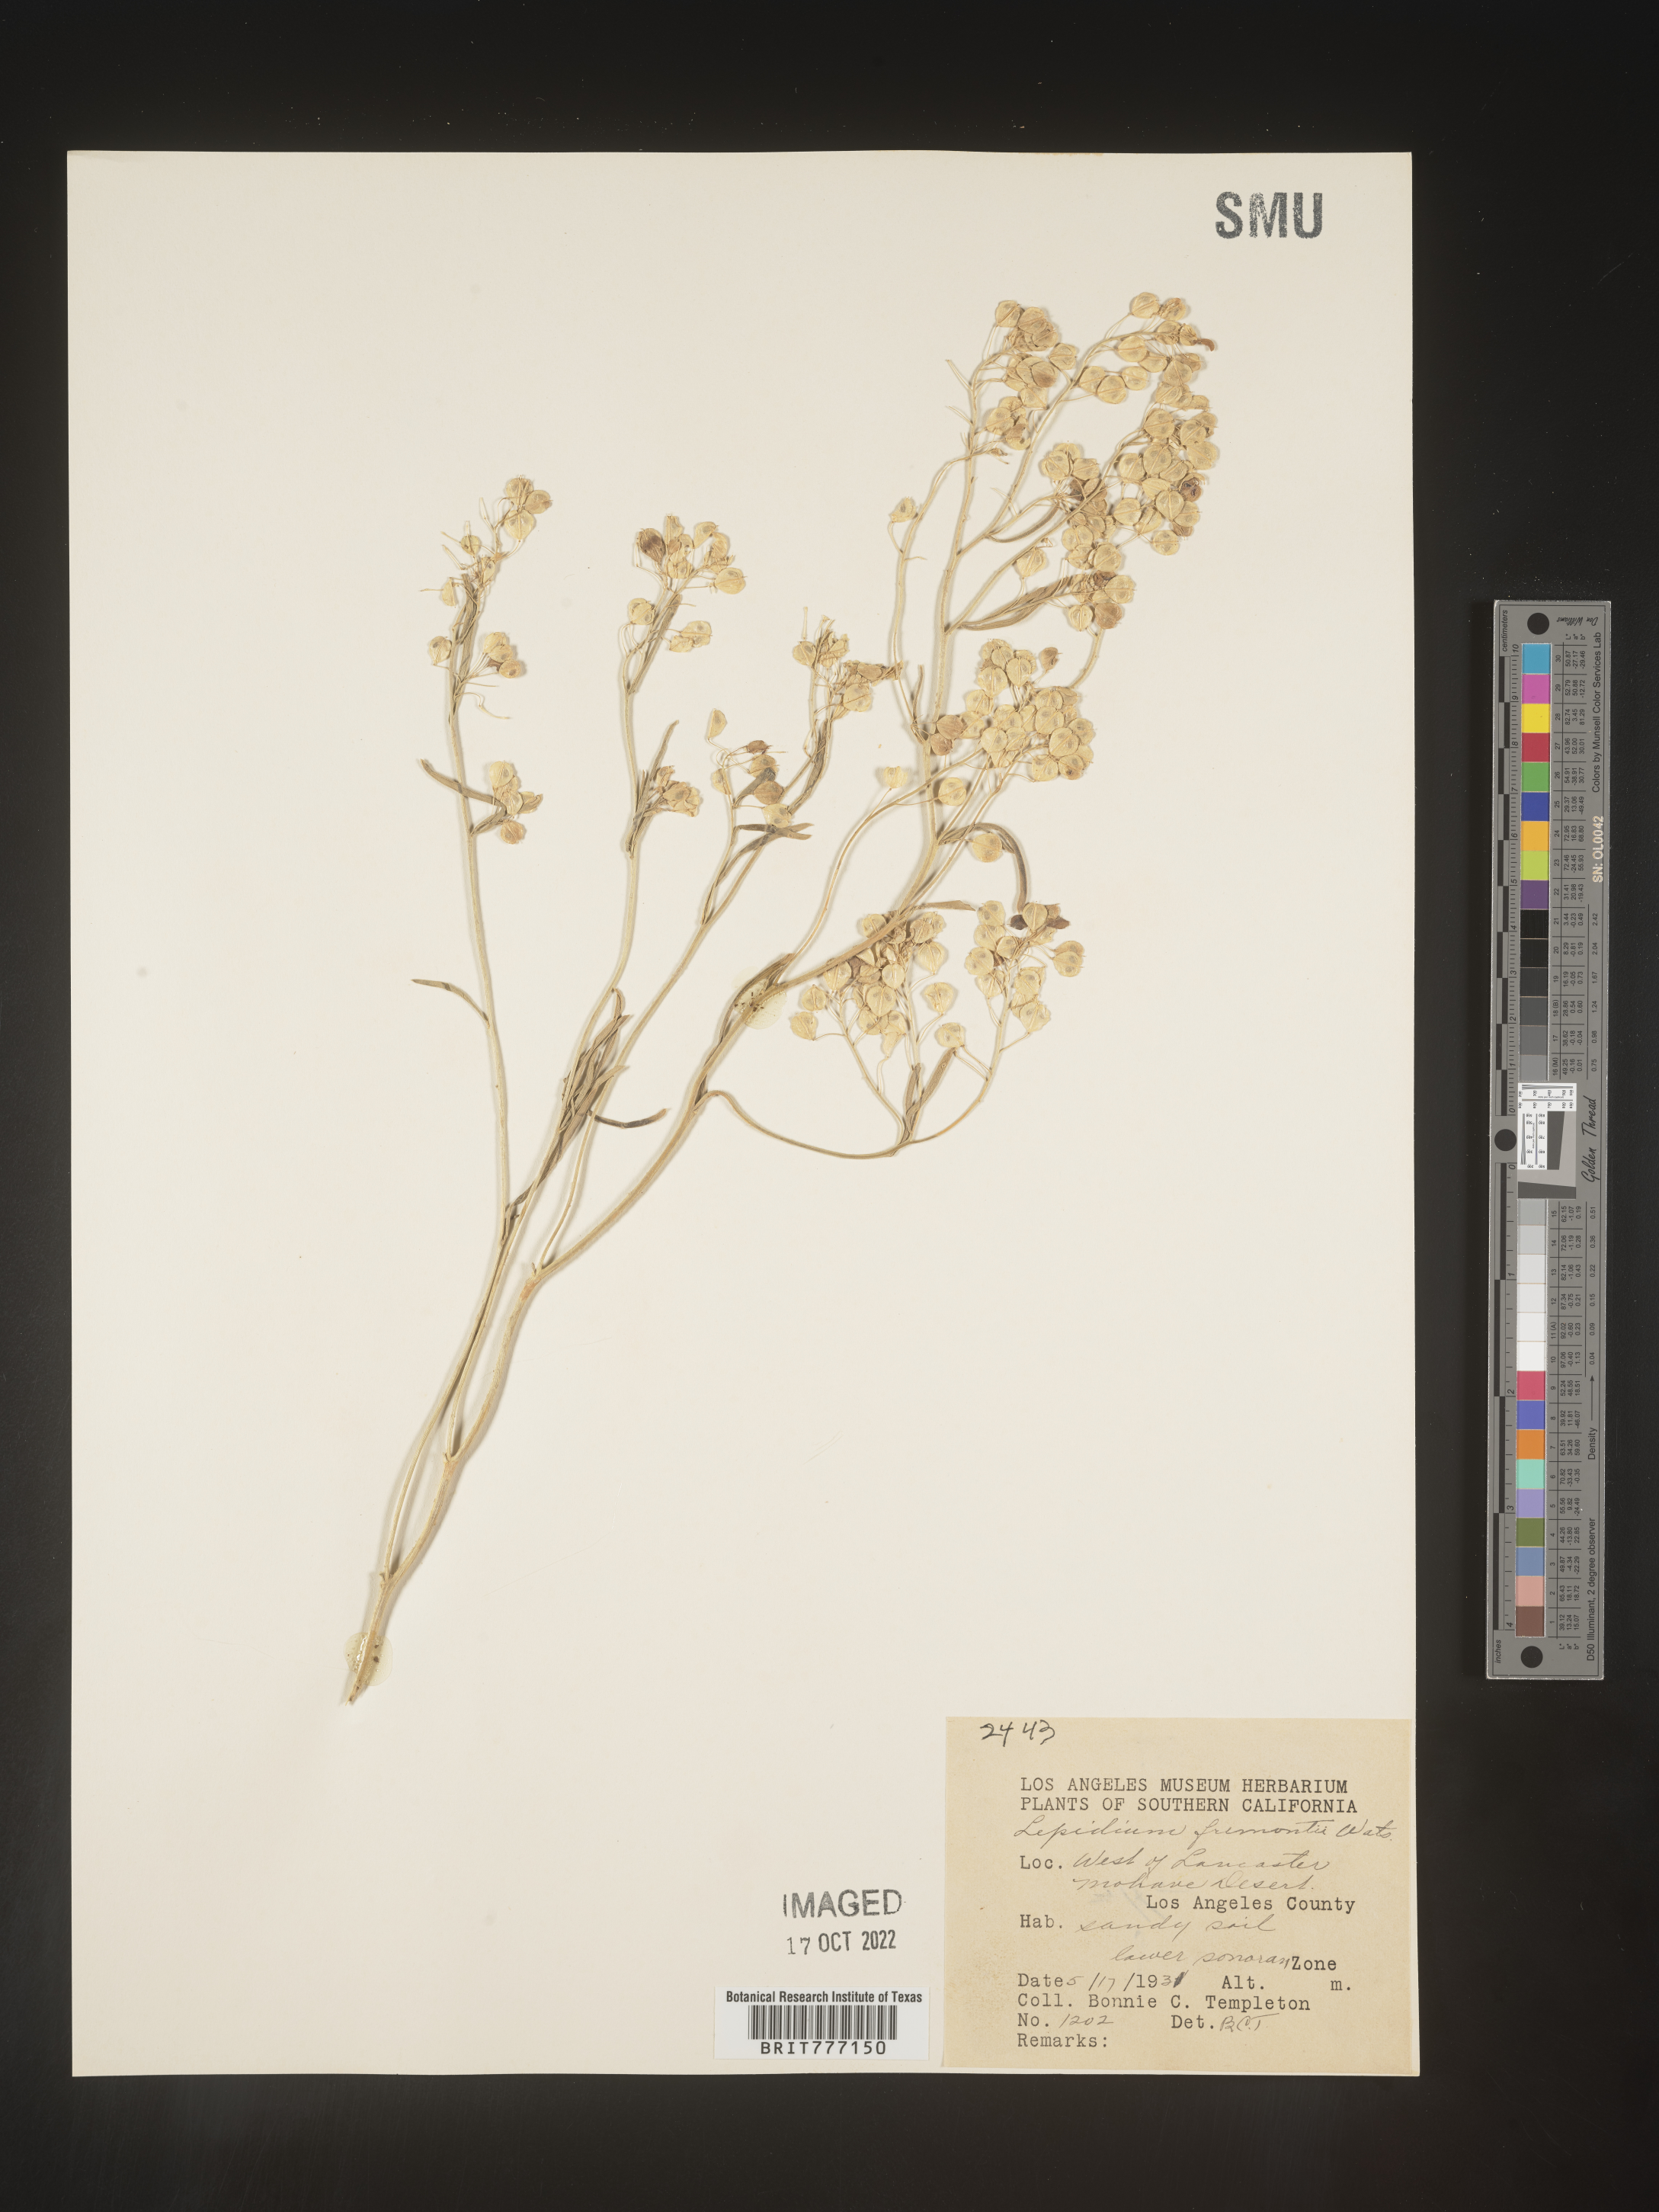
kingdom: Plantae
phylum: Tracheophyta
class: Magnoliopsida
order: Brassicales
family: Brassicaceae
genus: Lepidium
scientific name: Lepidium fremontii
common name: Fremont's pepperwort
